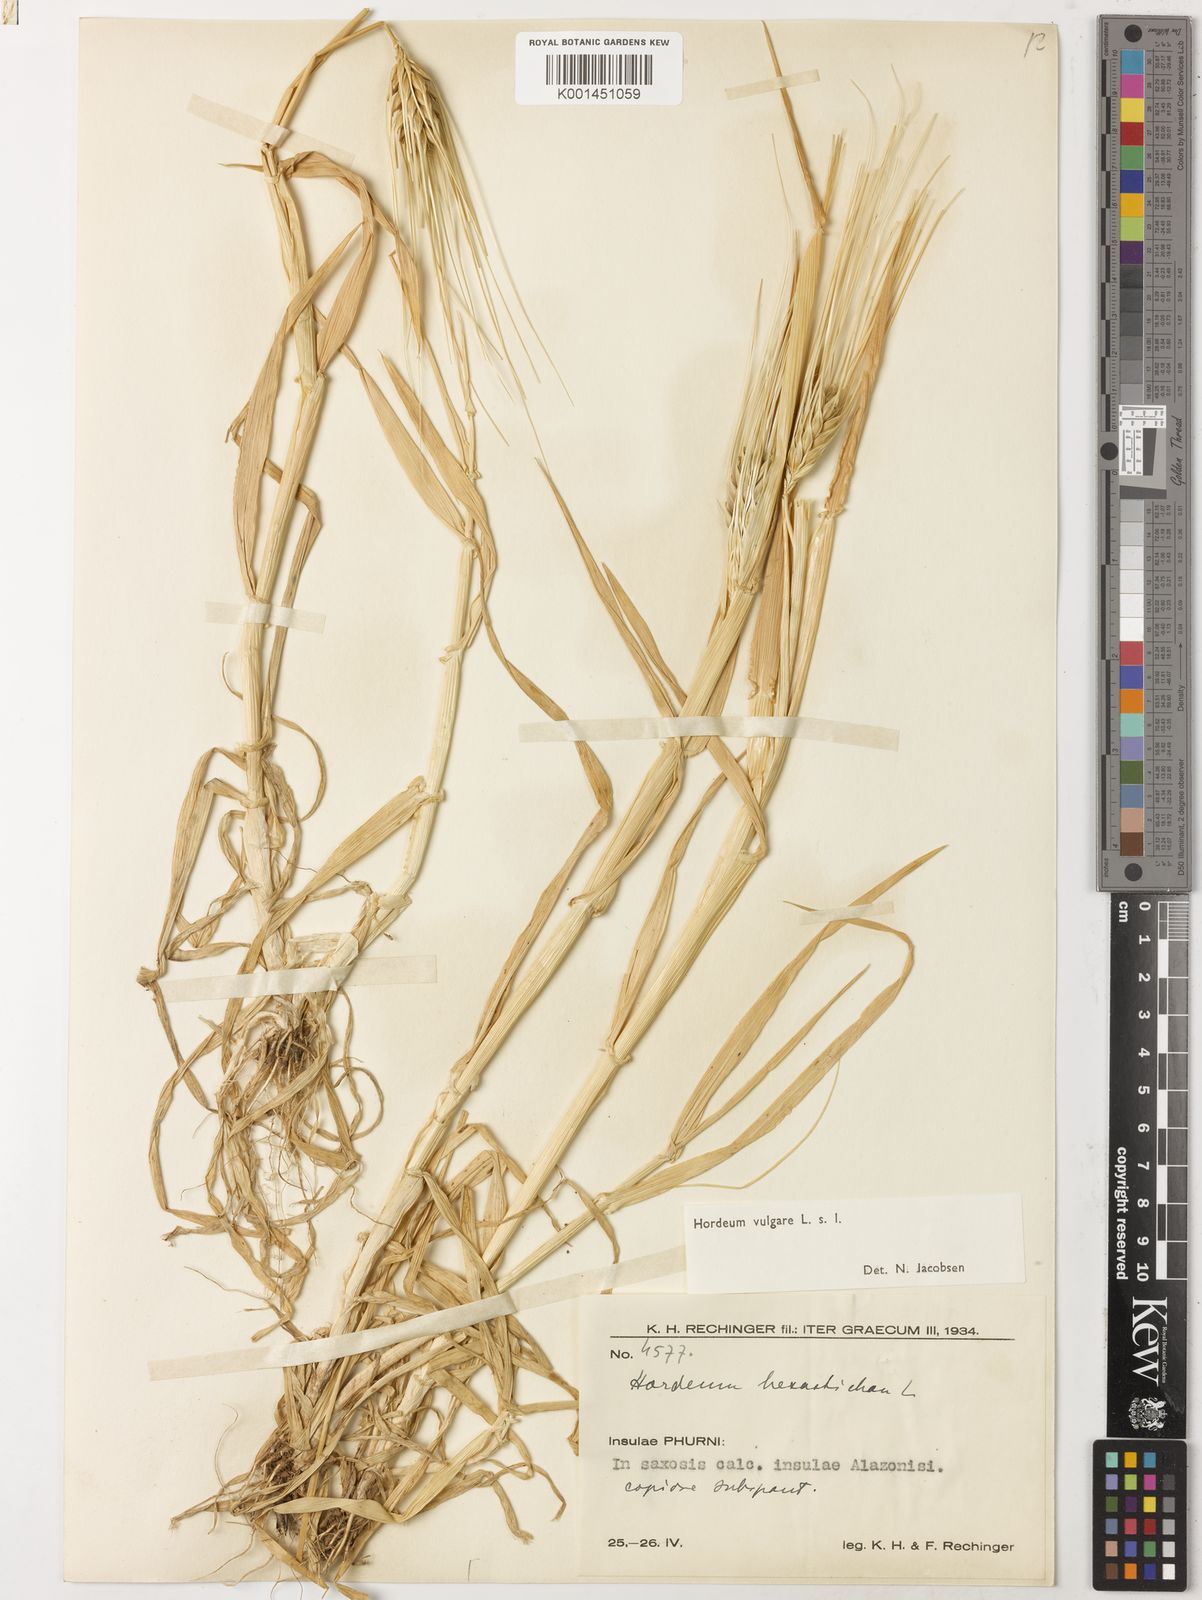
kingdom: Plantae
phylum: Tracheophyta
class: Liliopsida
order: Poales
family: Poaceae
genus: Hordeum
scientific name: Hordeum vulgare
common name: Common barley
